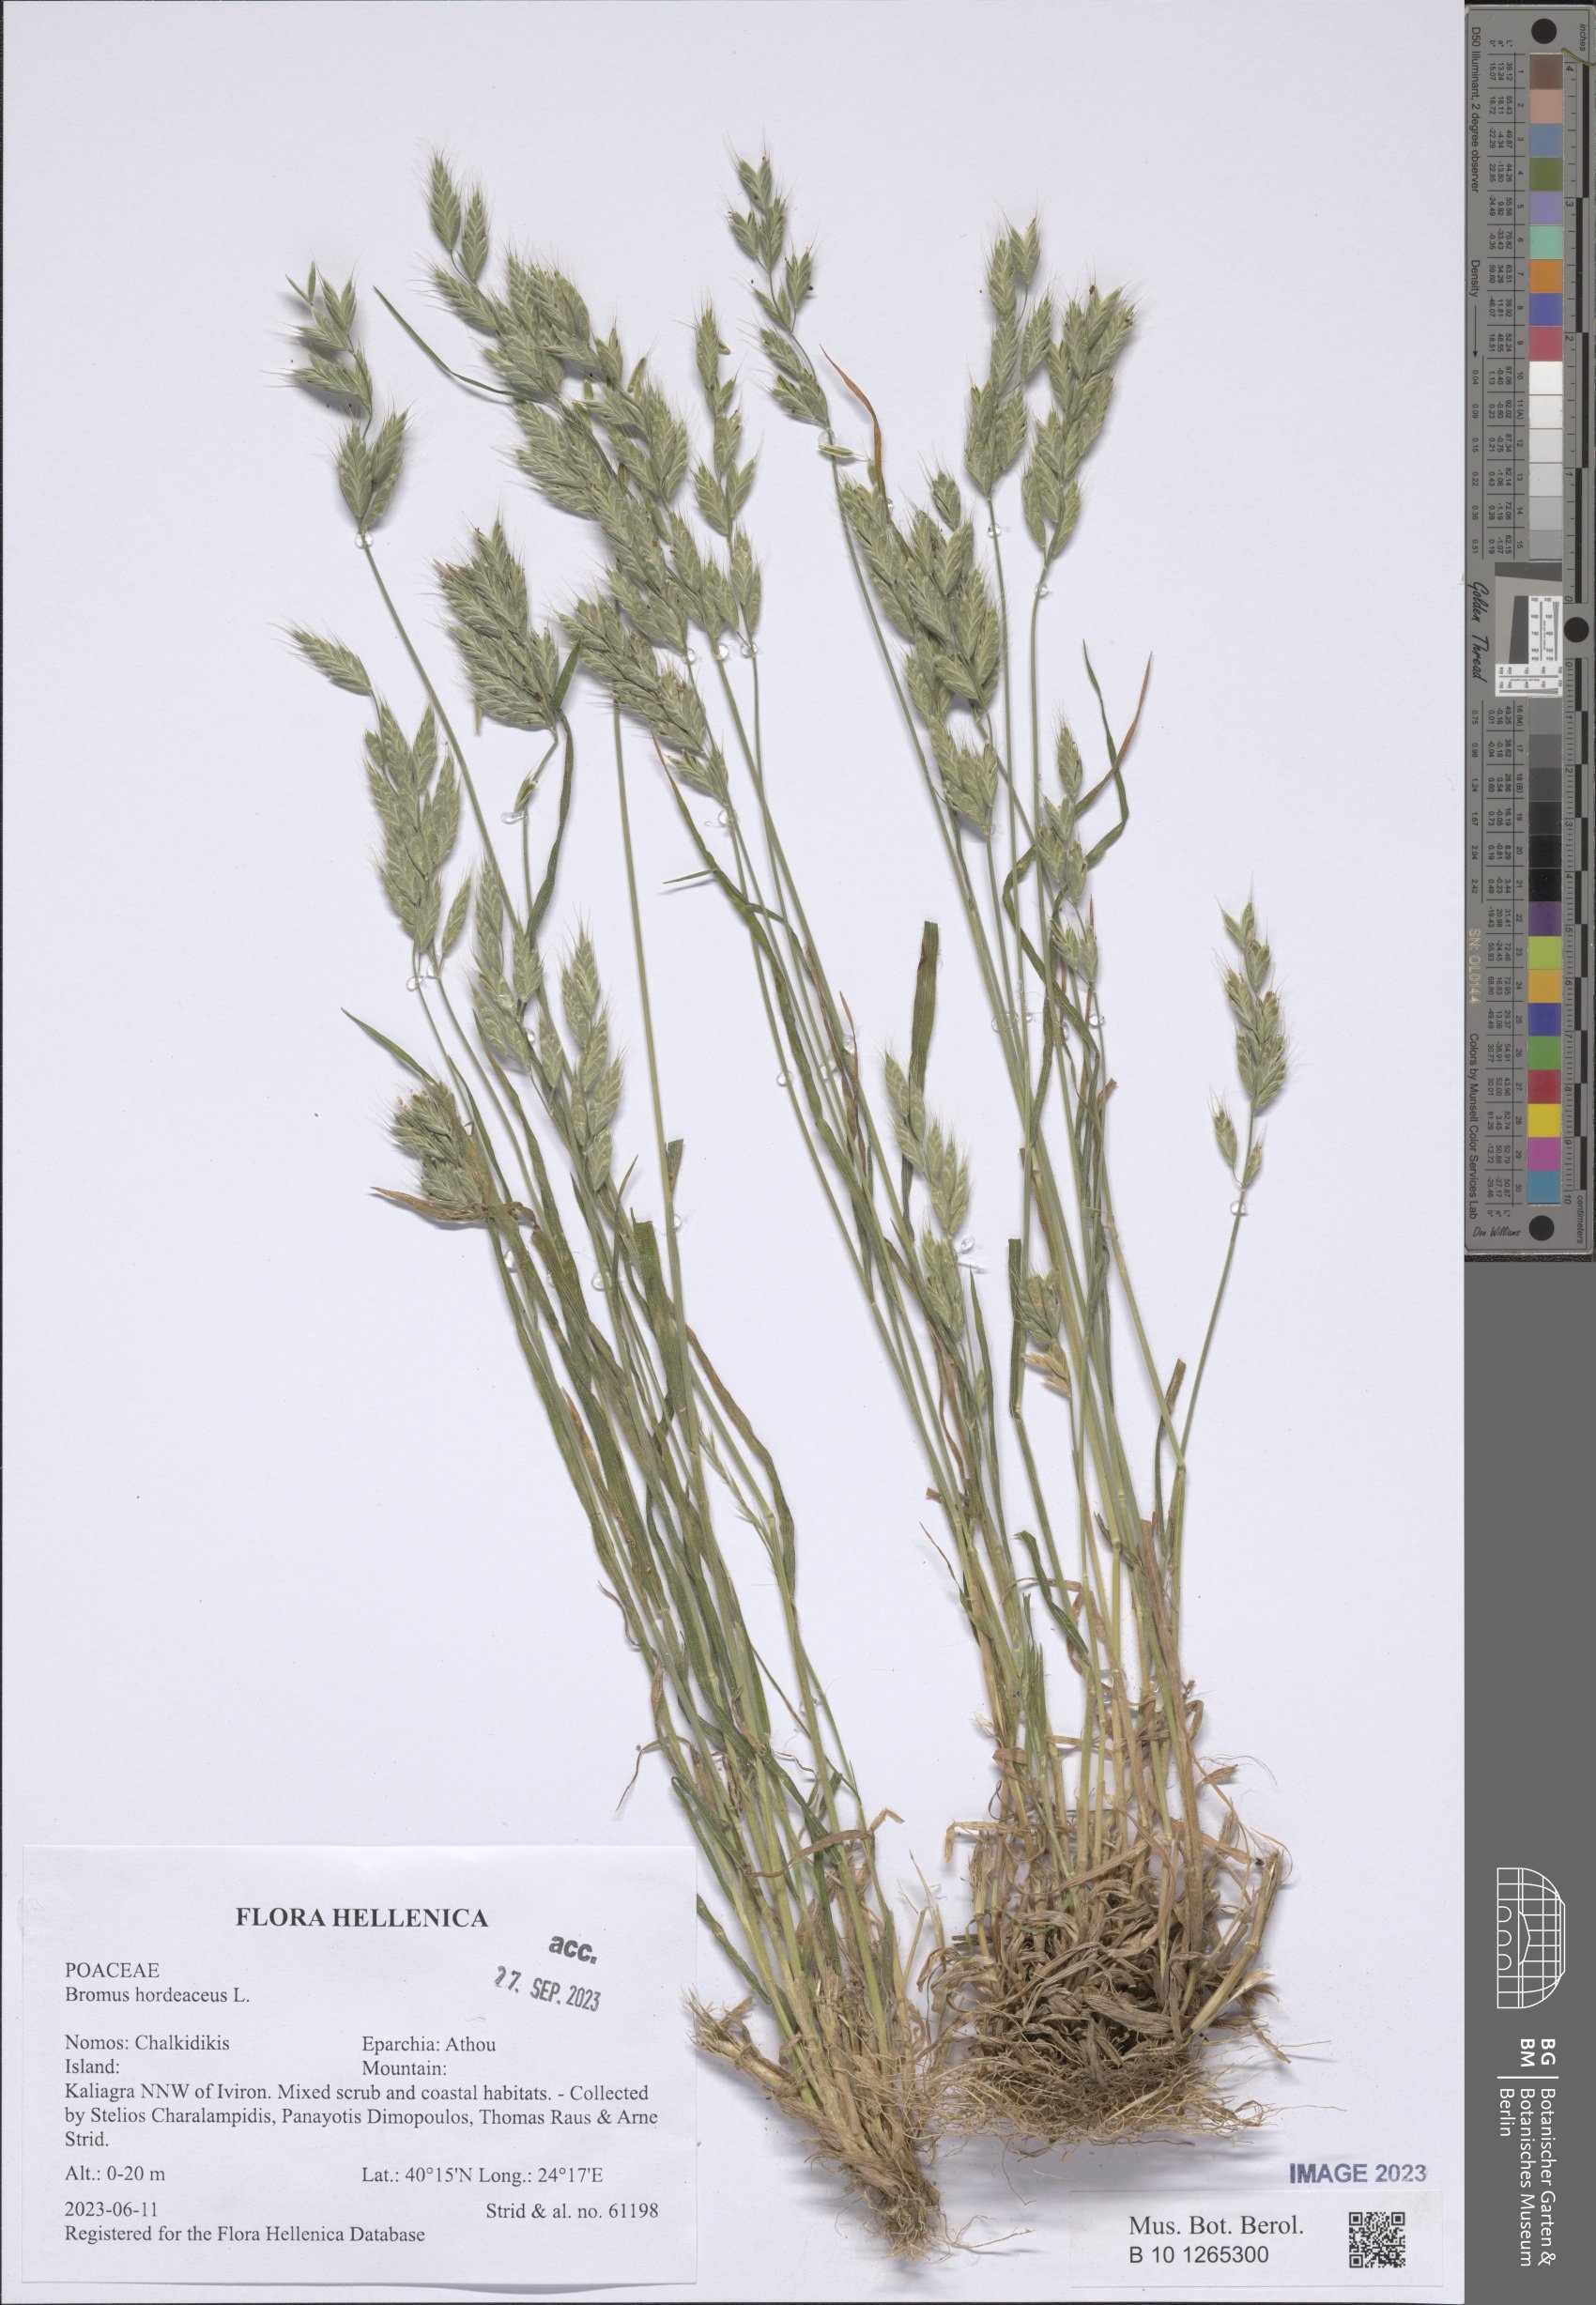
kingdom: Plantae
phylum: Tracheophyta
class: Liliopsida
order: Poales
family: Poaceae
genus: Bromus
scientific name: Bromus hordeaceus
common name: Soft brome
